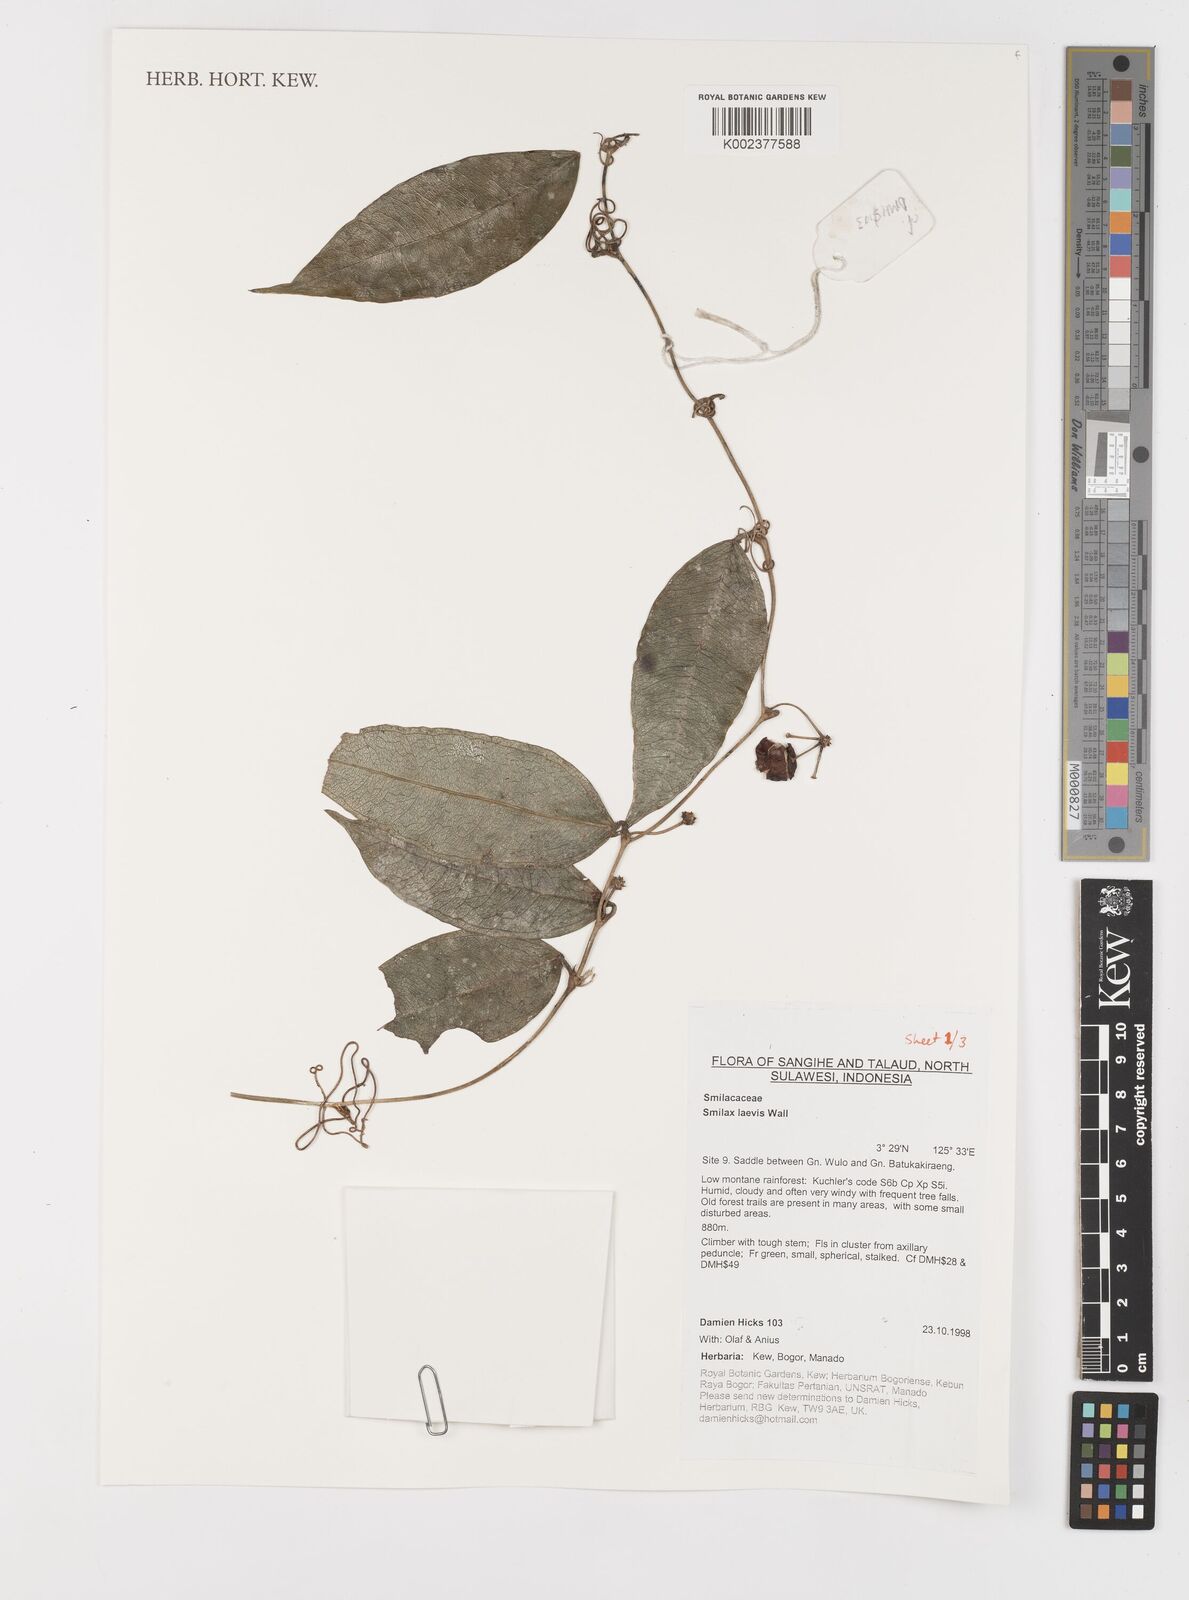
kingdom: Plantae
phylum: Tracheophyta
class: Liliopsida
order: Liliales
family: Smilacaceae
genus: Smilax
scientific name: Smilax laevis
